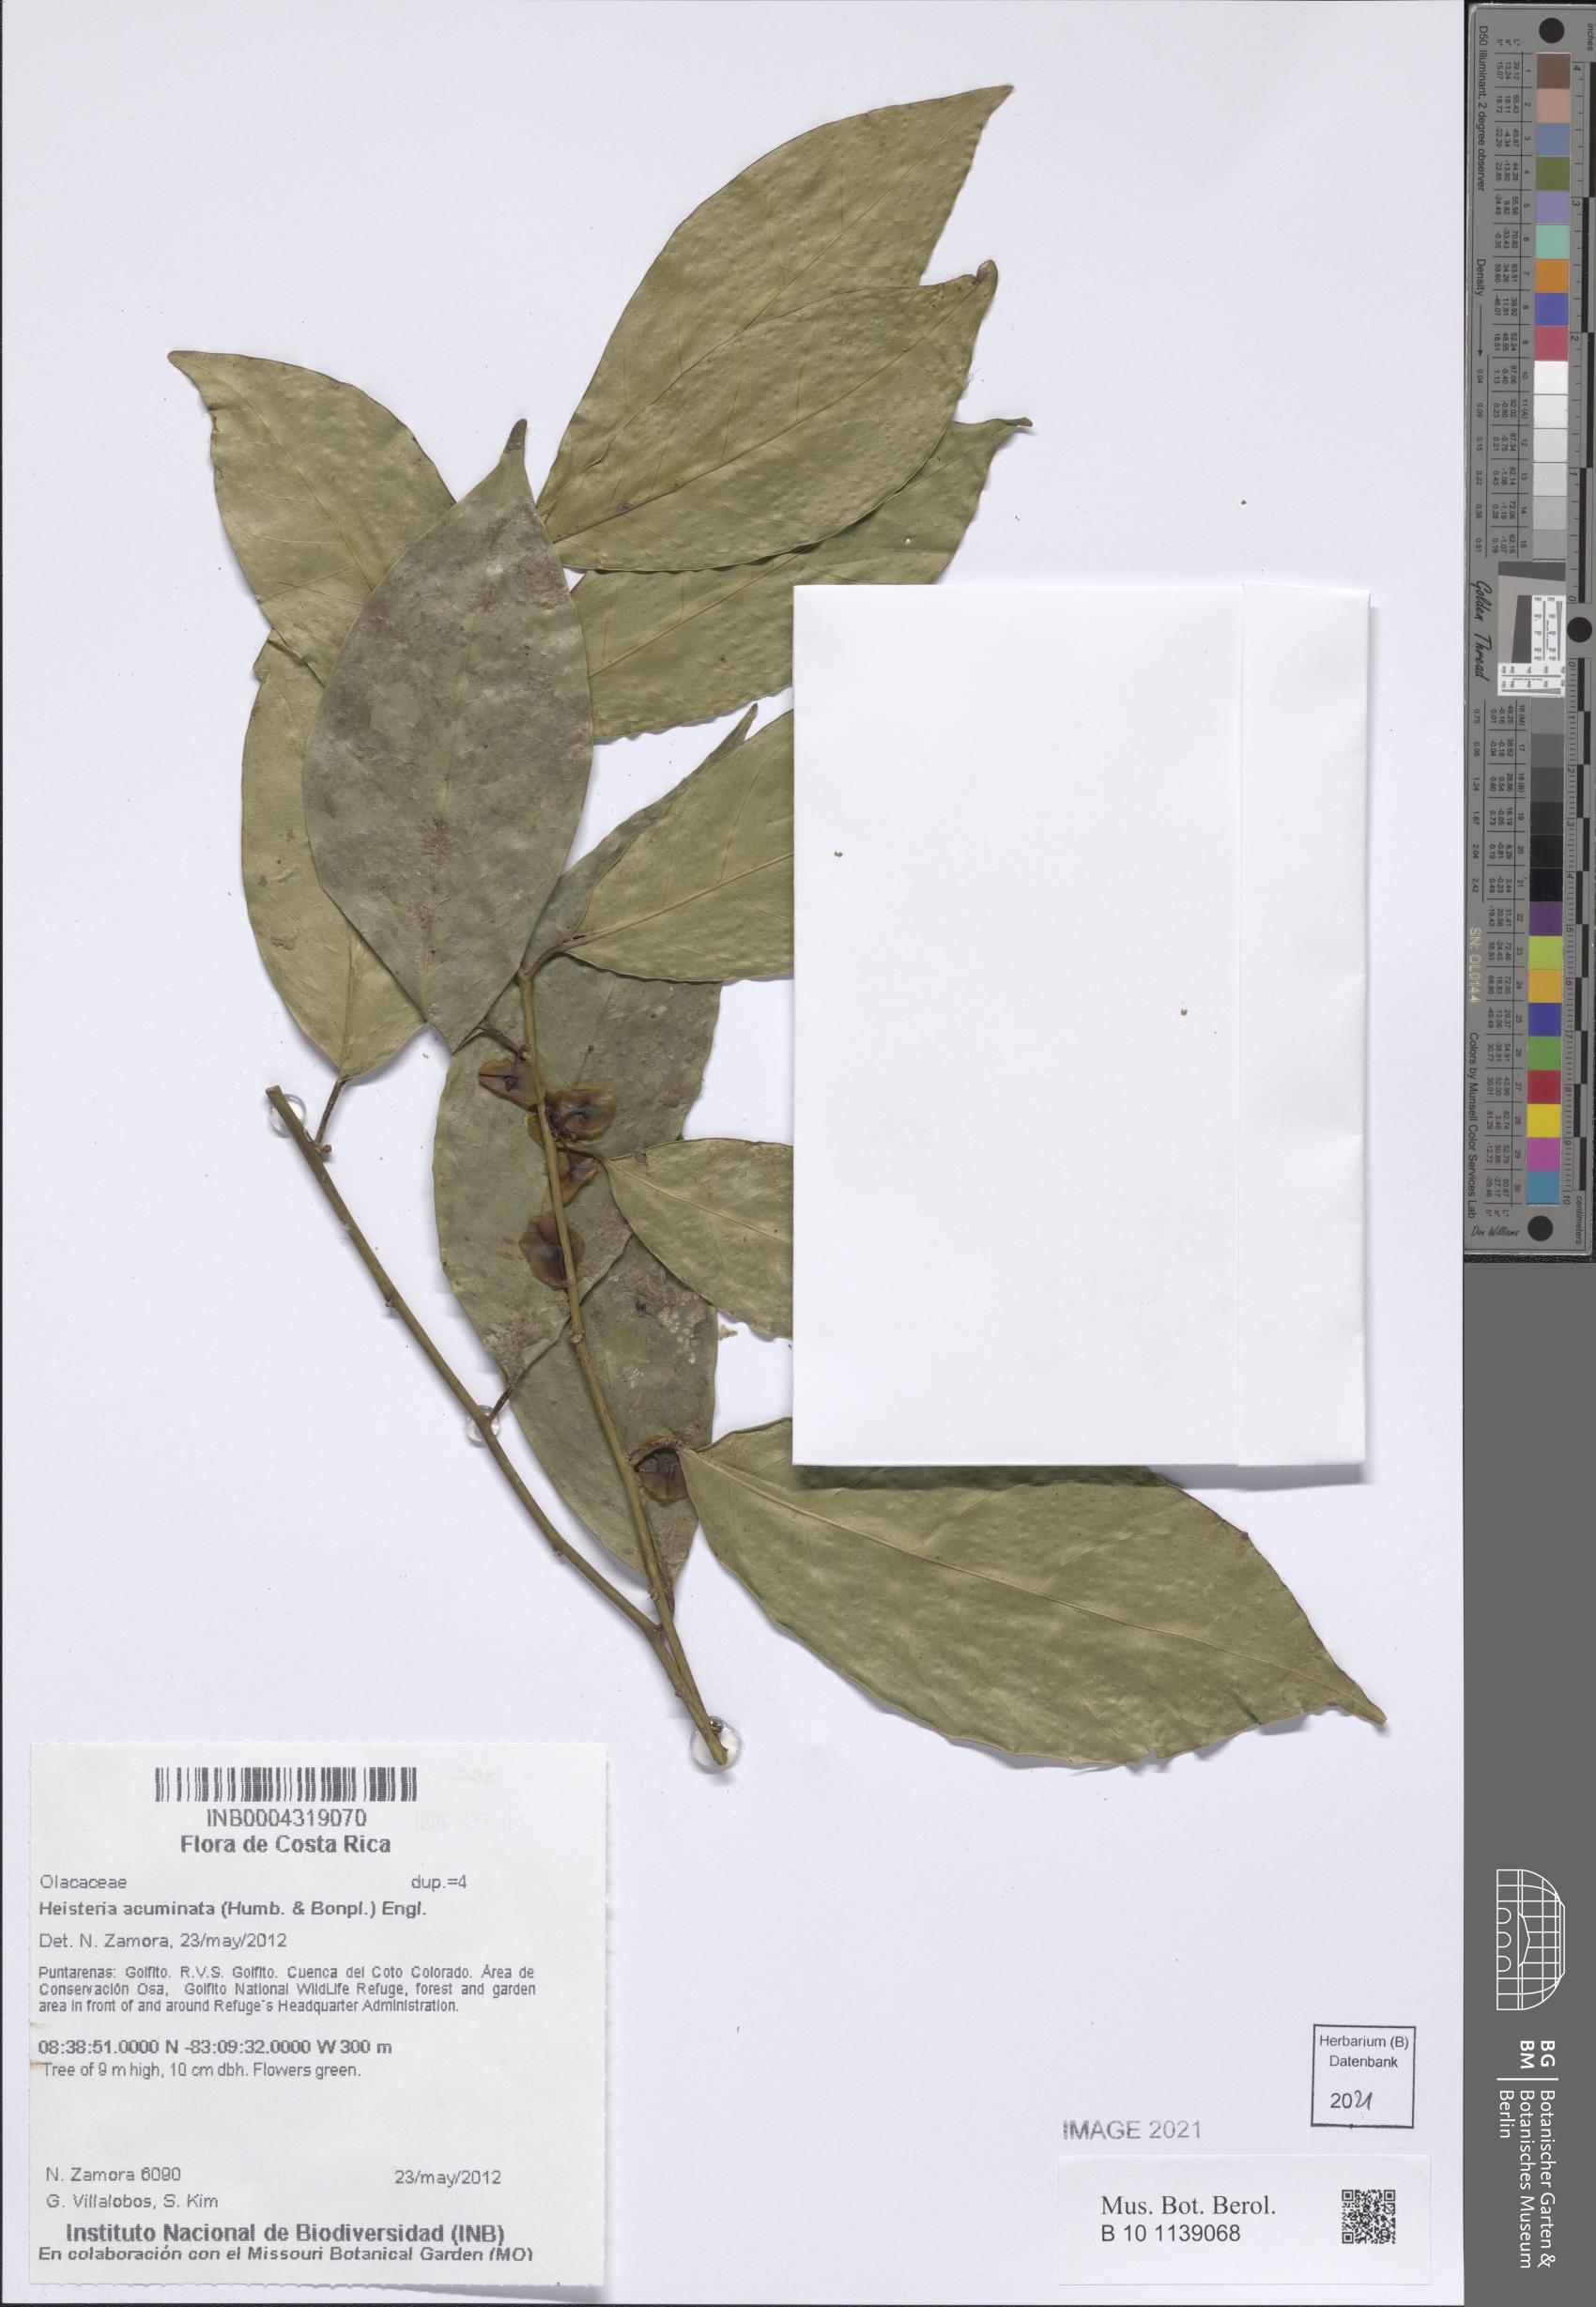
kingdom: Plantae
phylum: Tracheophyta
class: Magnoliopsida
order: Santalales
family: Erythropalaceae
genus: Heisteria
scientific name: Heisteria acuminata
